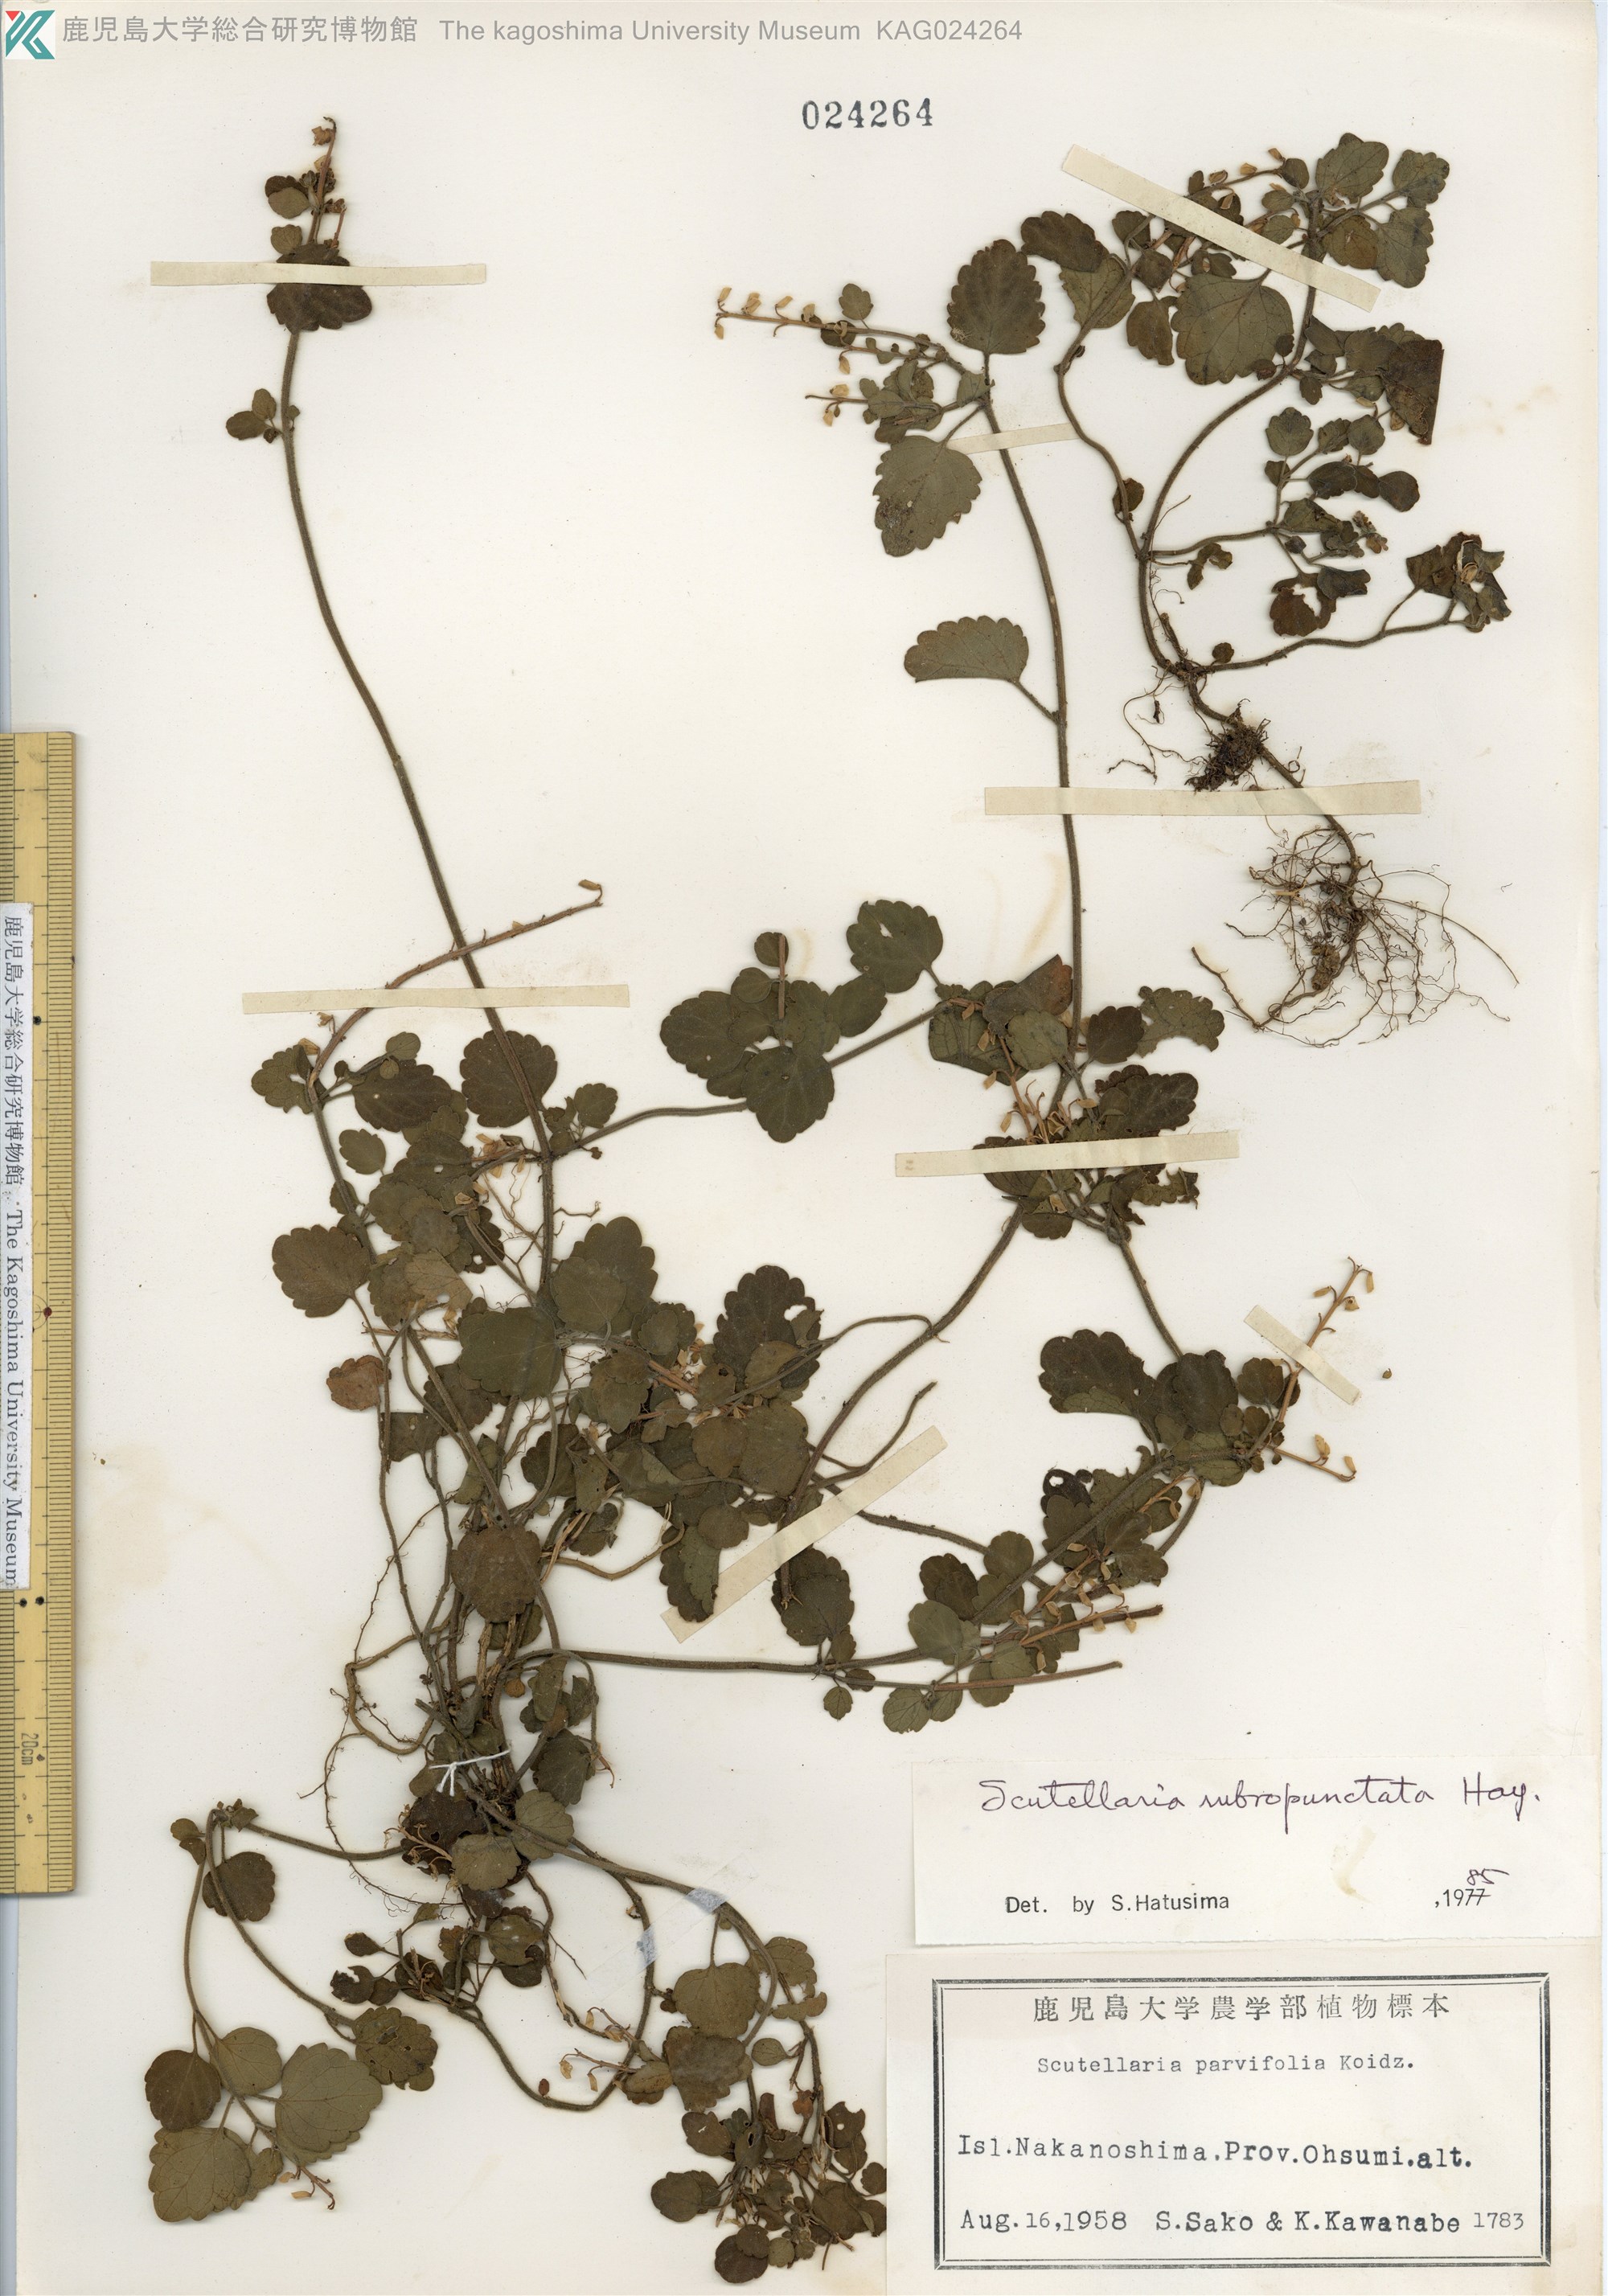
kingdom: Plantae
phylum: Tracheophyta
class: Magnoliopsida
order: Lamiales
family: Lamiaceae
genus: Scutellaria
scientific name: Scutellaria rubropunctata
